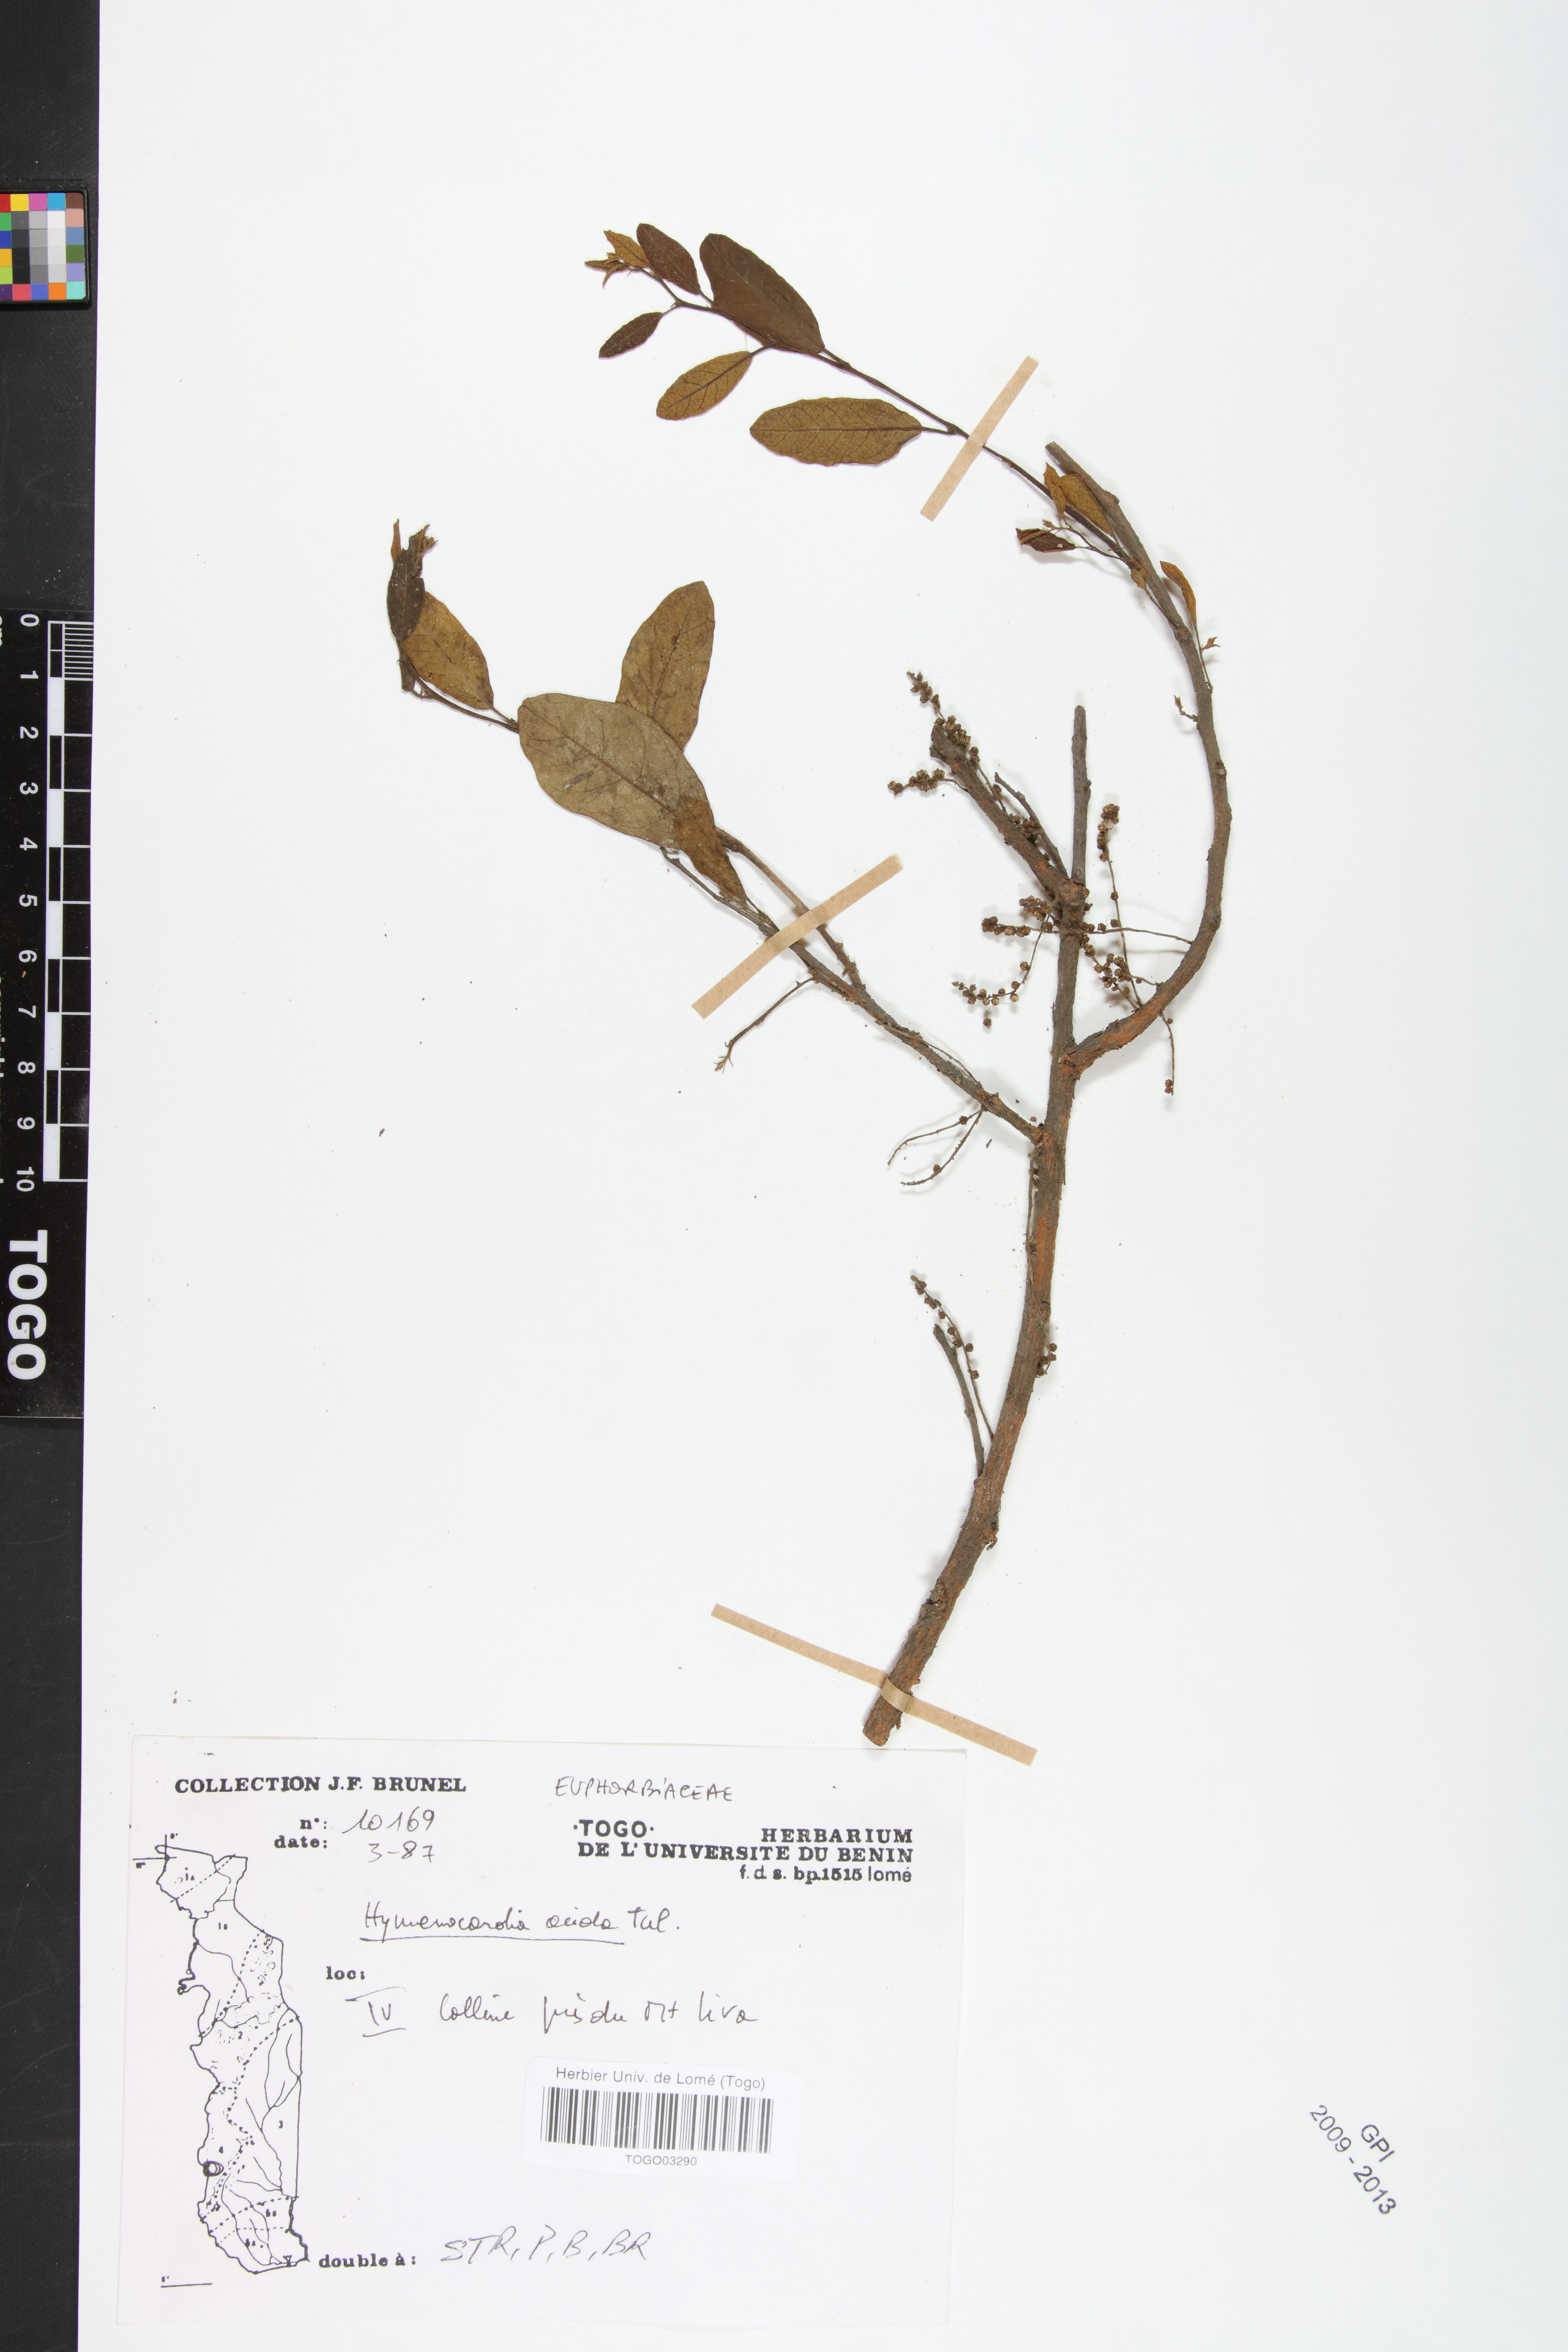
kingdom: Plantae
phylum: Tracheophyta
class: Magnoliopsida
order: Malpighiales
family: Phyllanthaceae
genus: Hymenocardia
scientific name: Hymenocardia acida
